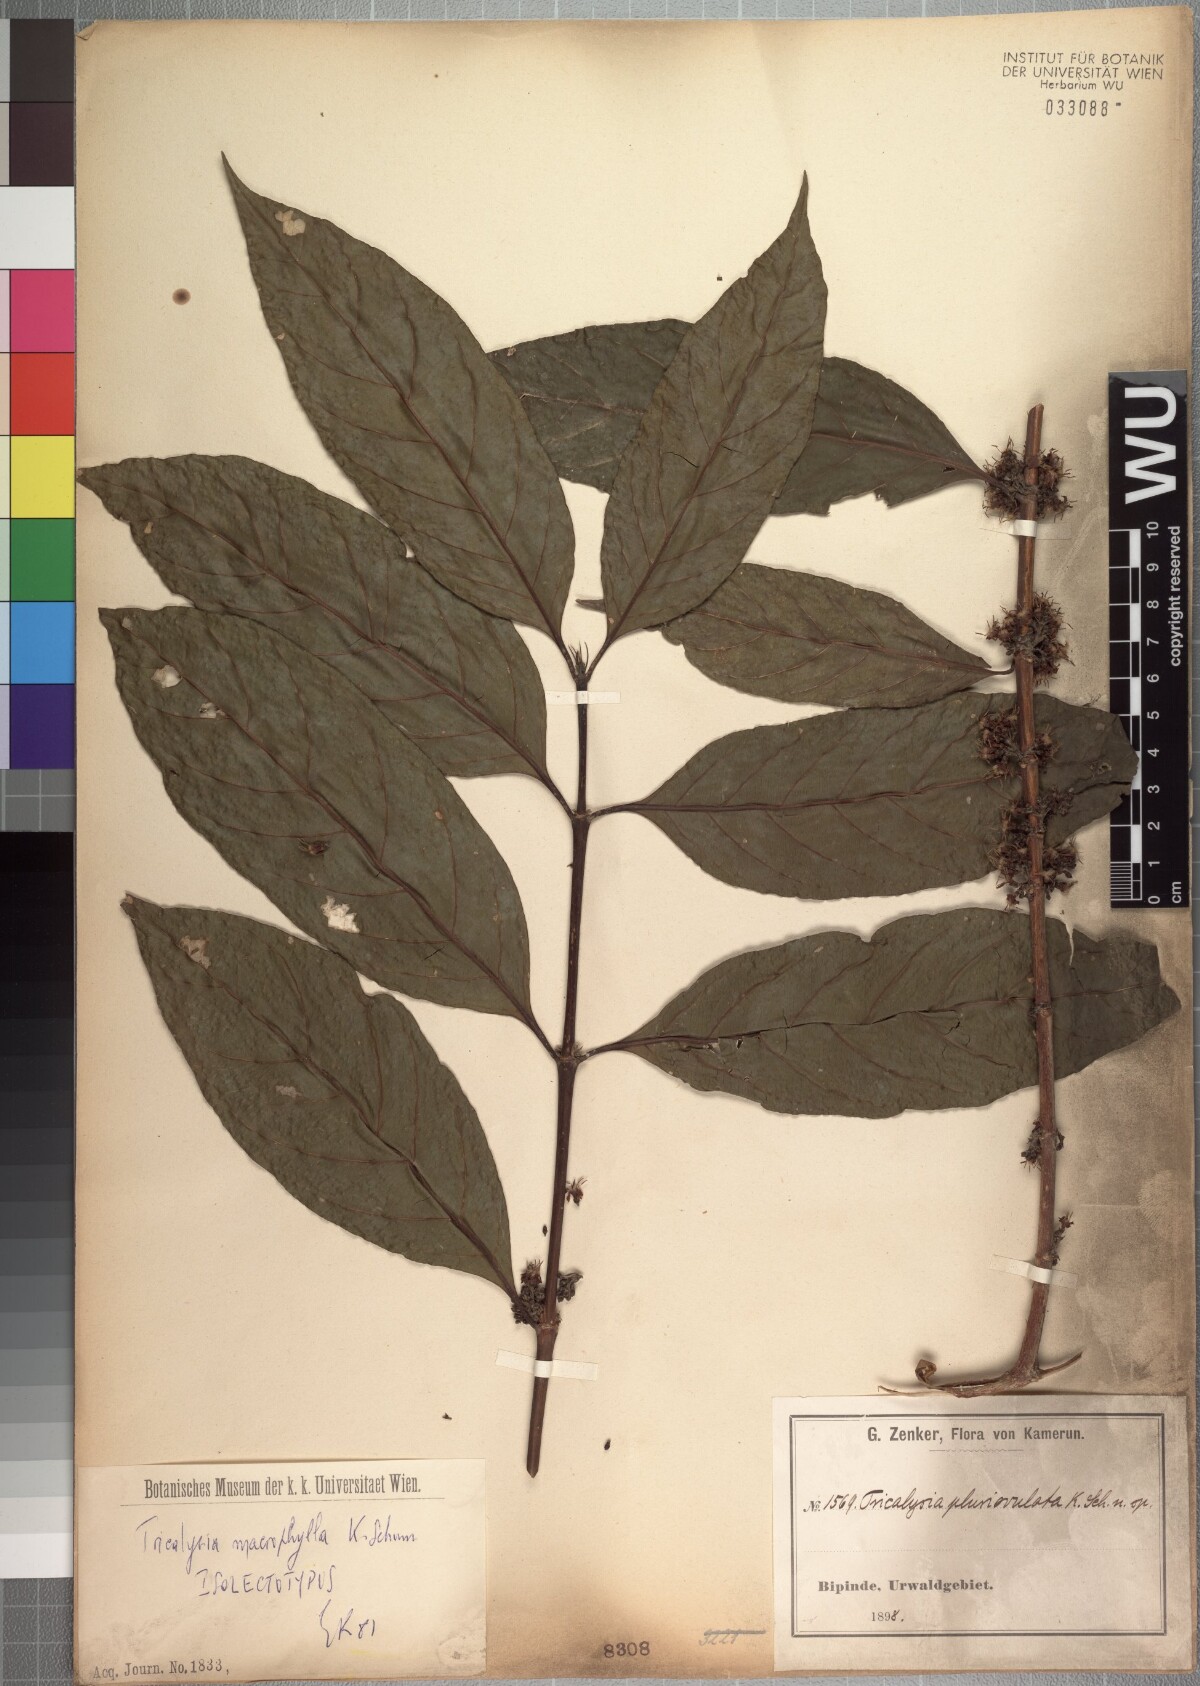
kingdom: Plantae
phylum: Tracheophyta
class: Magnoliopsida
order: Gentianales
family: Rubiaceae
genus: Empogona
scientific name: Empogona macrophylla
